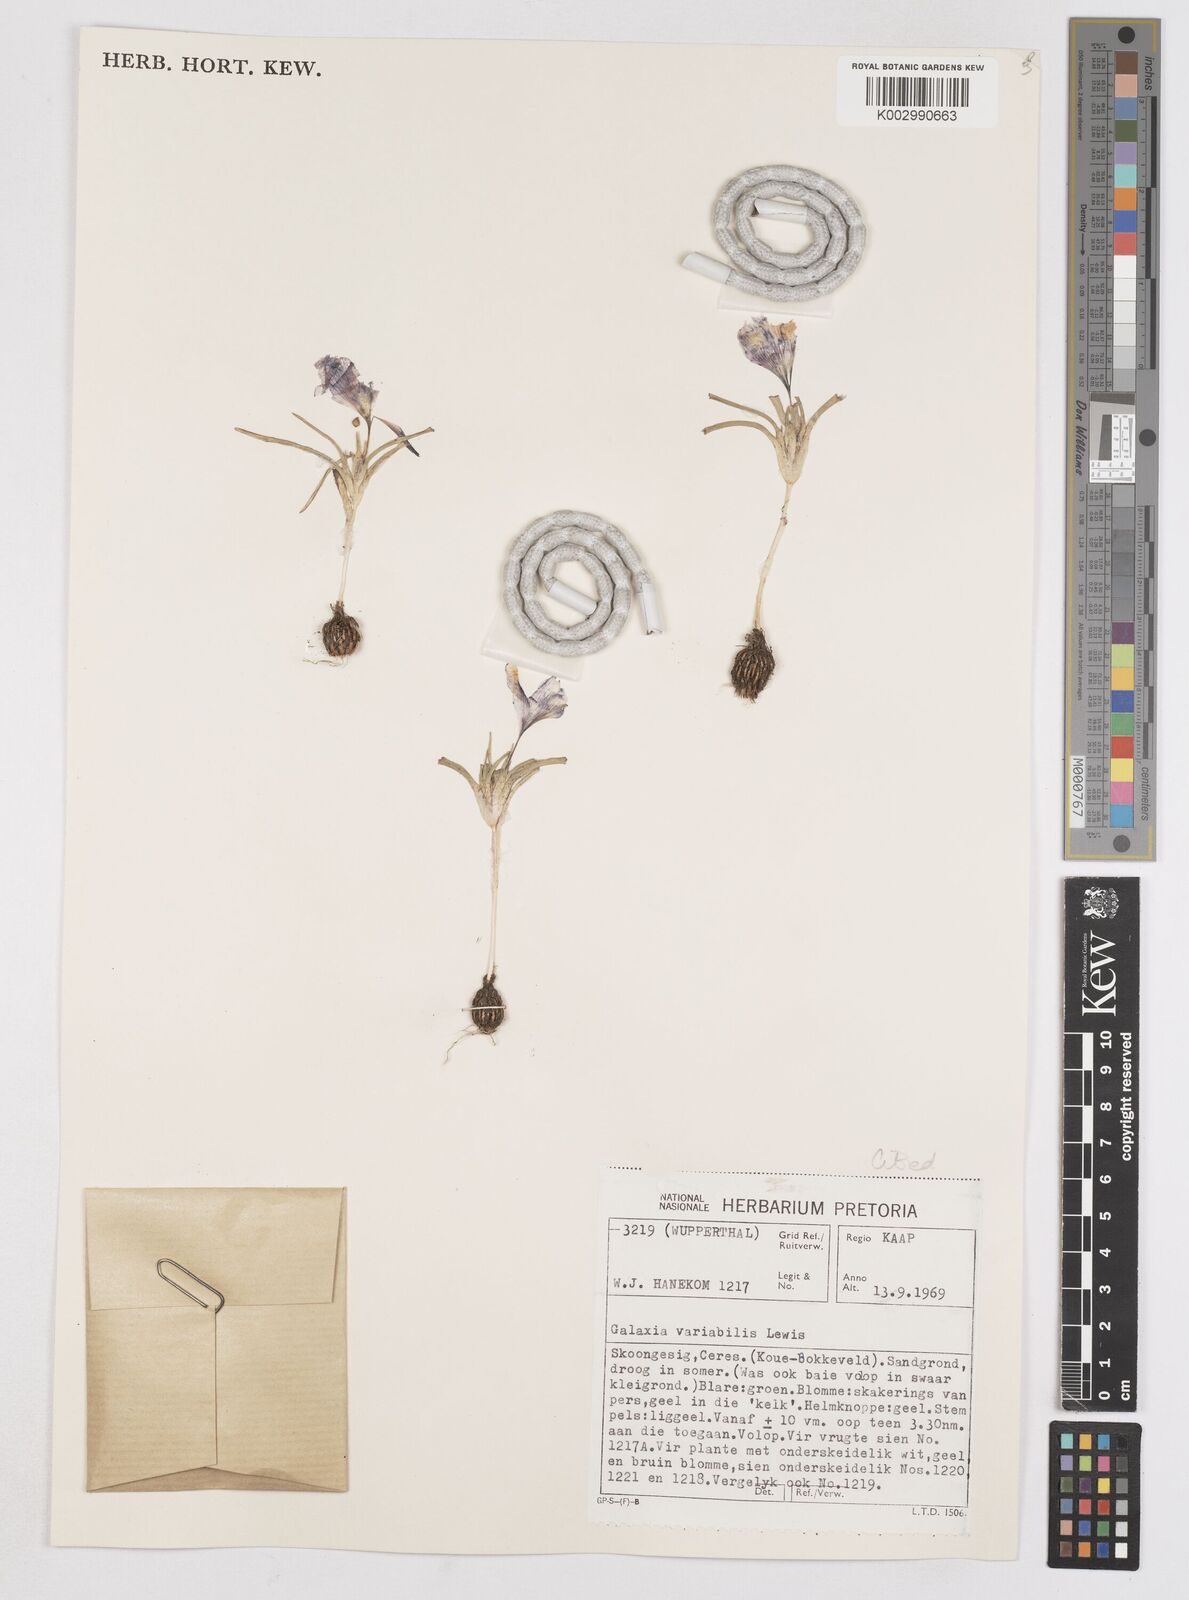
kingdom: Plantae
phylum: Tracheophyta
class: Liliopsida
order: Asparagales
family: Iridaceae
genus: Moraea
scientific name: Moraea variabilis
